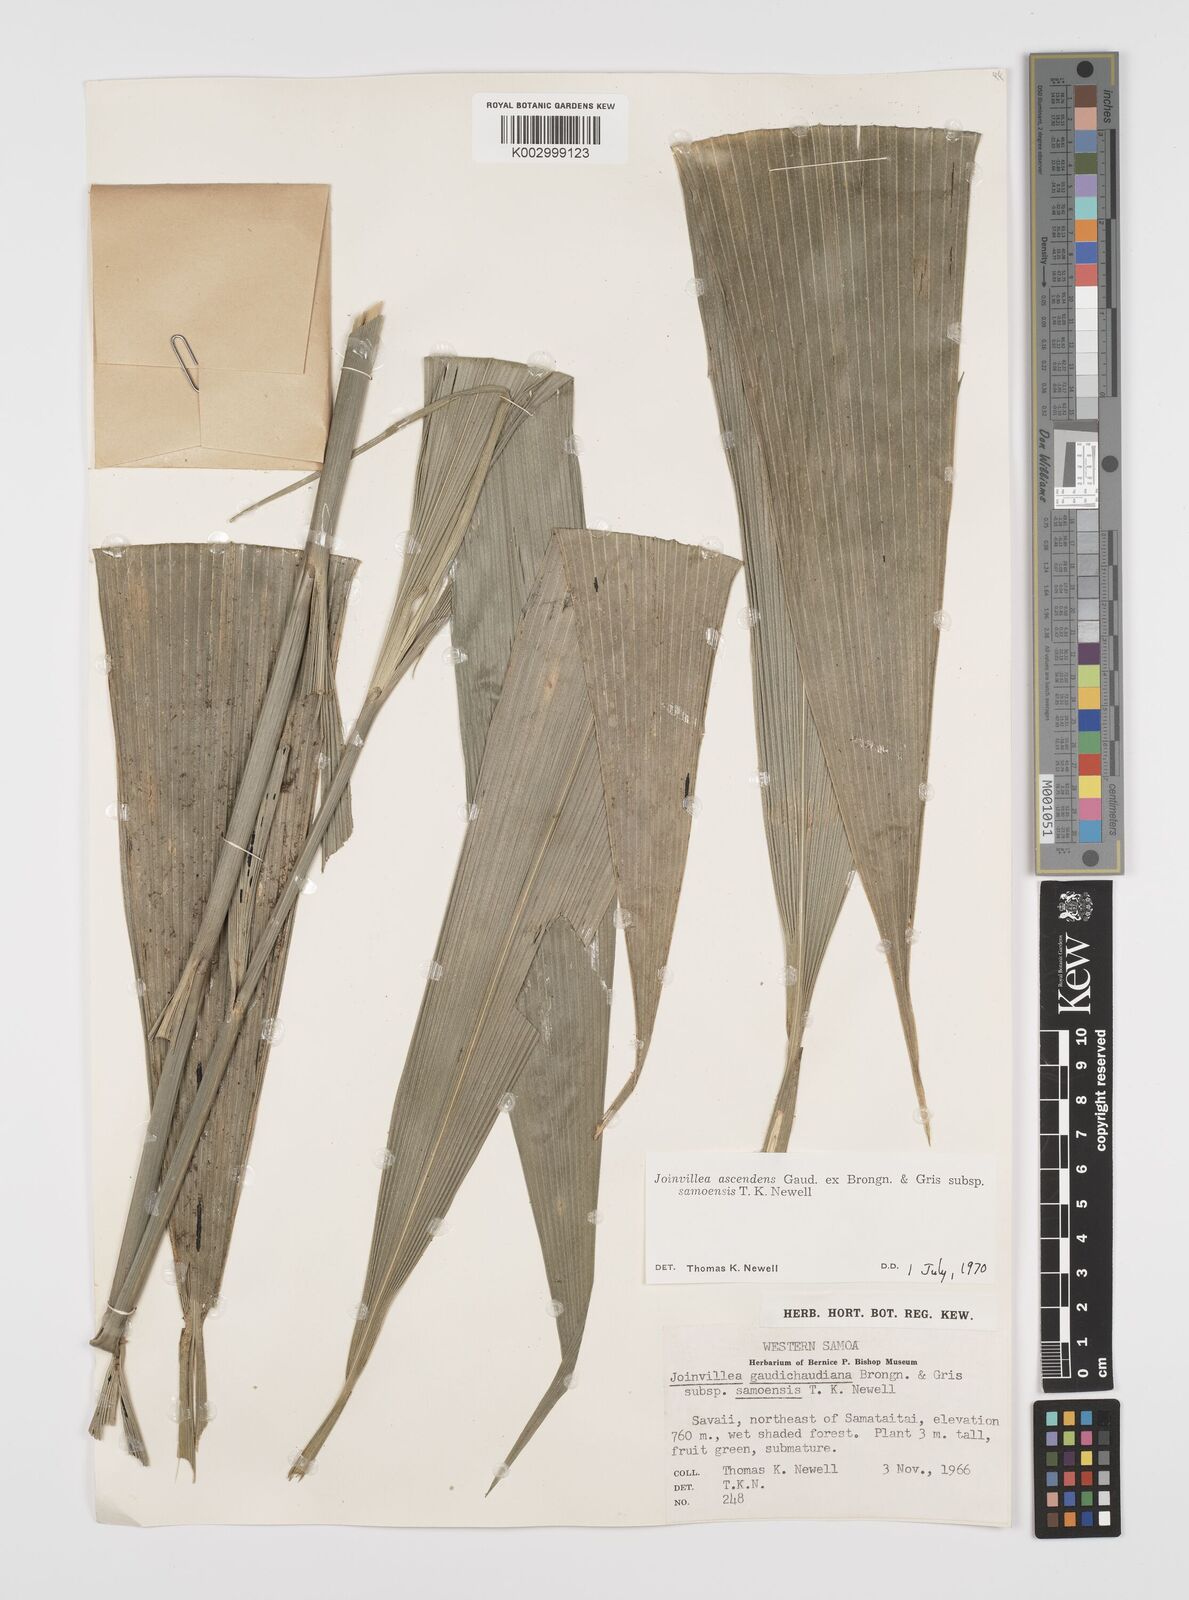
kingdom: Plantae
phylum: Tracheophyta
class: Liliopsida
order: Poales
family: Joinvilleaceae
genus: Joinvillea
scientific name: Joinvillea bryanii
